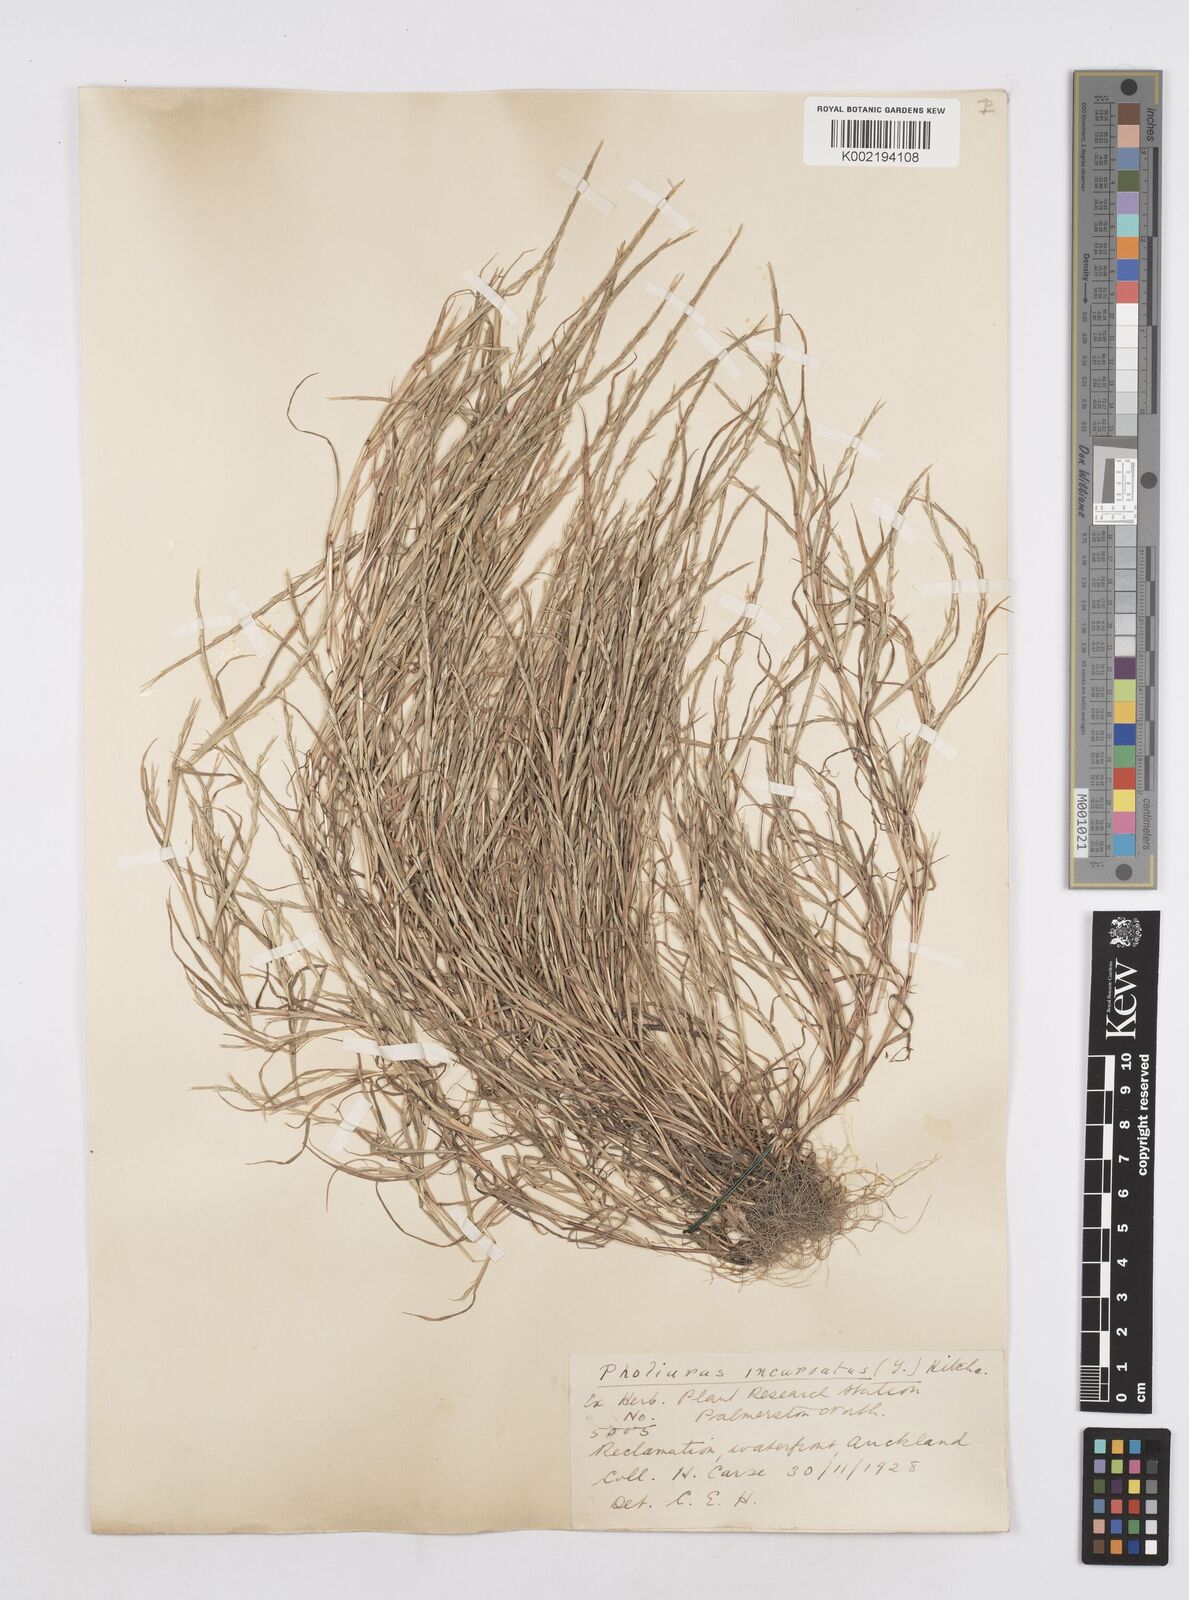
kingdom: Plantae
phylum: Tracheophyta
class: Liliopsida
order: Poales
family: Poaceae
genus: Parapholis
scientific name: Parapholis incurva
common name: Curved sicklegrass
